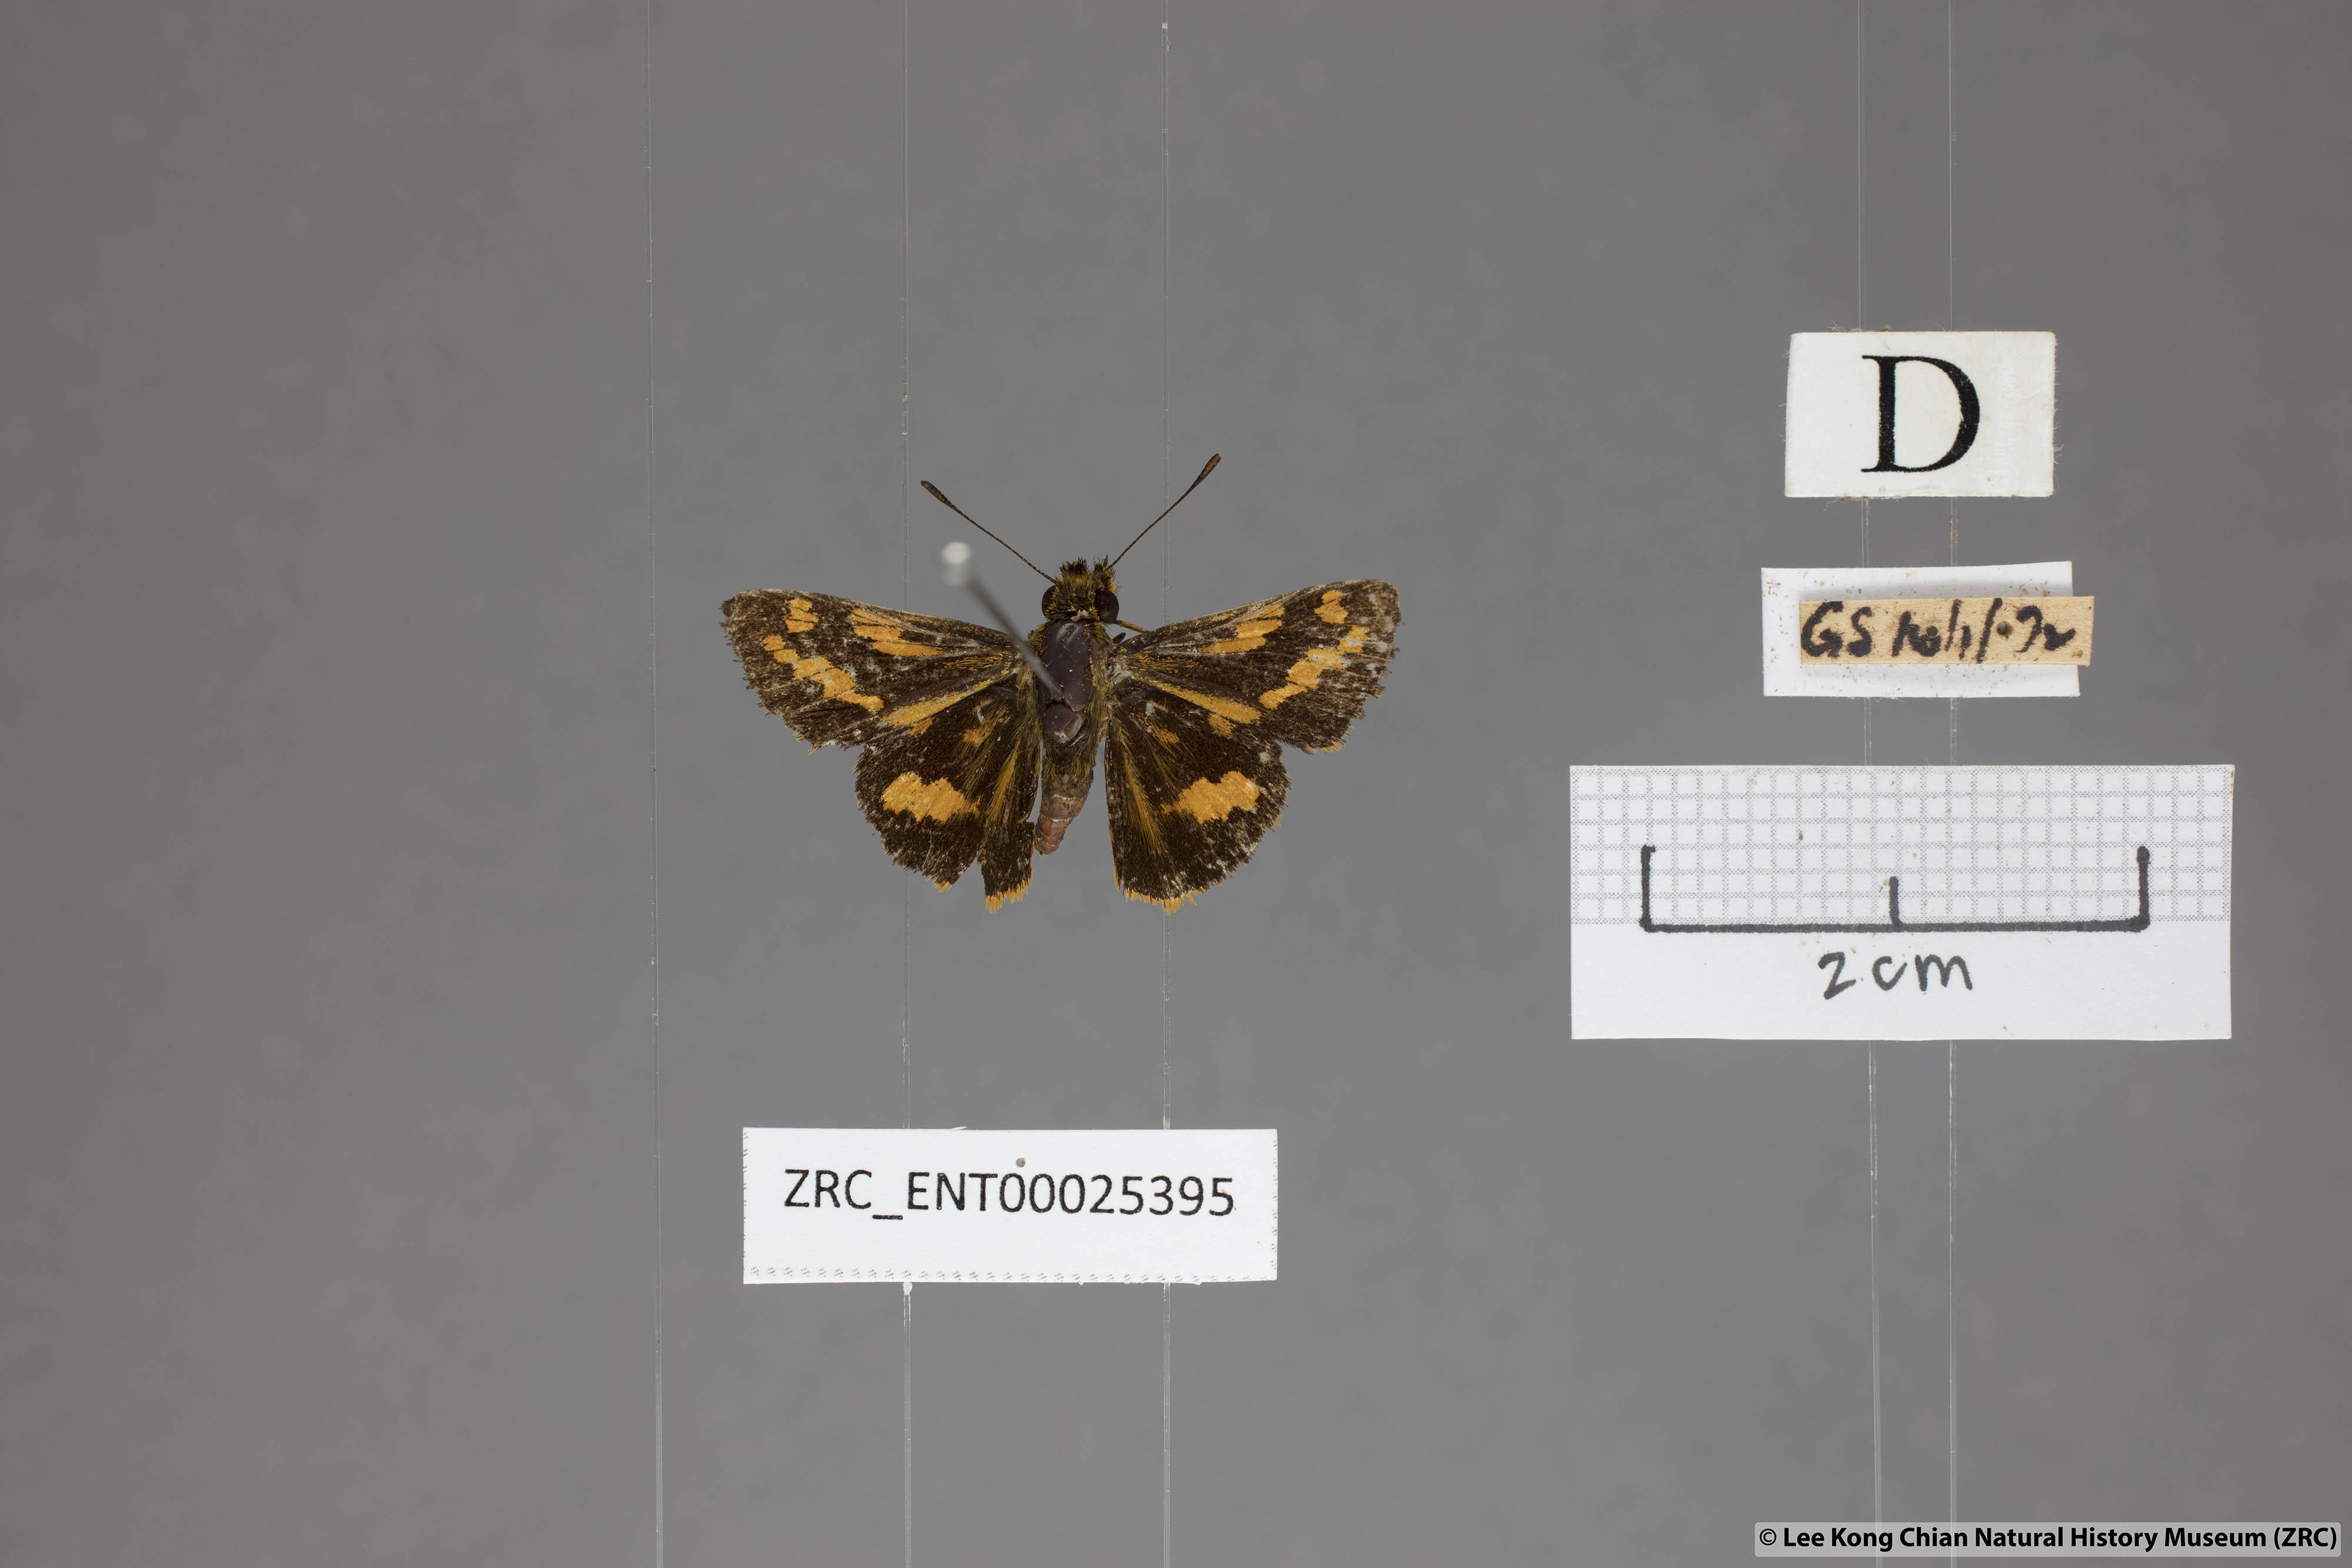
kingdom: Animalia
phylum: Arthropoda
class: Insecta
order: Lepidoptera
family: Hesperiidae
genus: Potanthus
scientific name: Potanthus ganda
